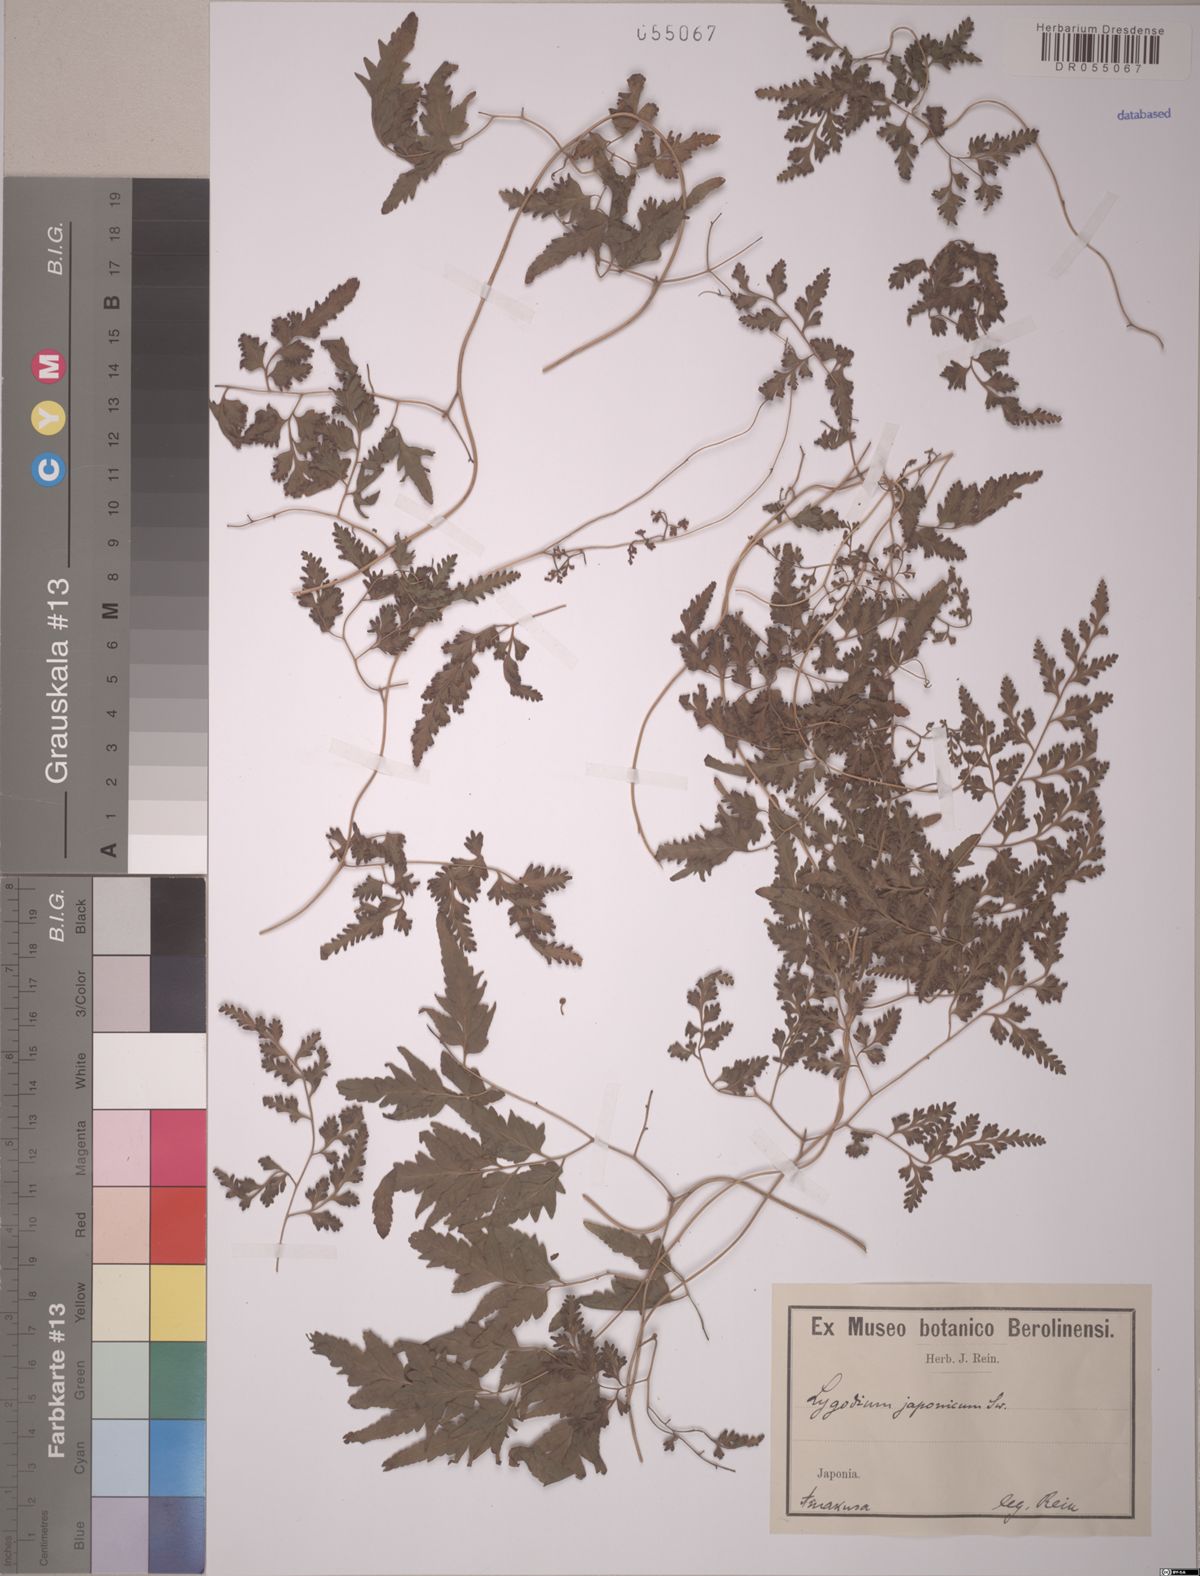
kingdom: Plantae
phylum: Tracheophyta
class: Polypodiopsida
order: Schizaeales
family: Lygodiaceae
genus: Lygodium
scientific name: Lygodium japonicum
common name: Japanese climbing fern
